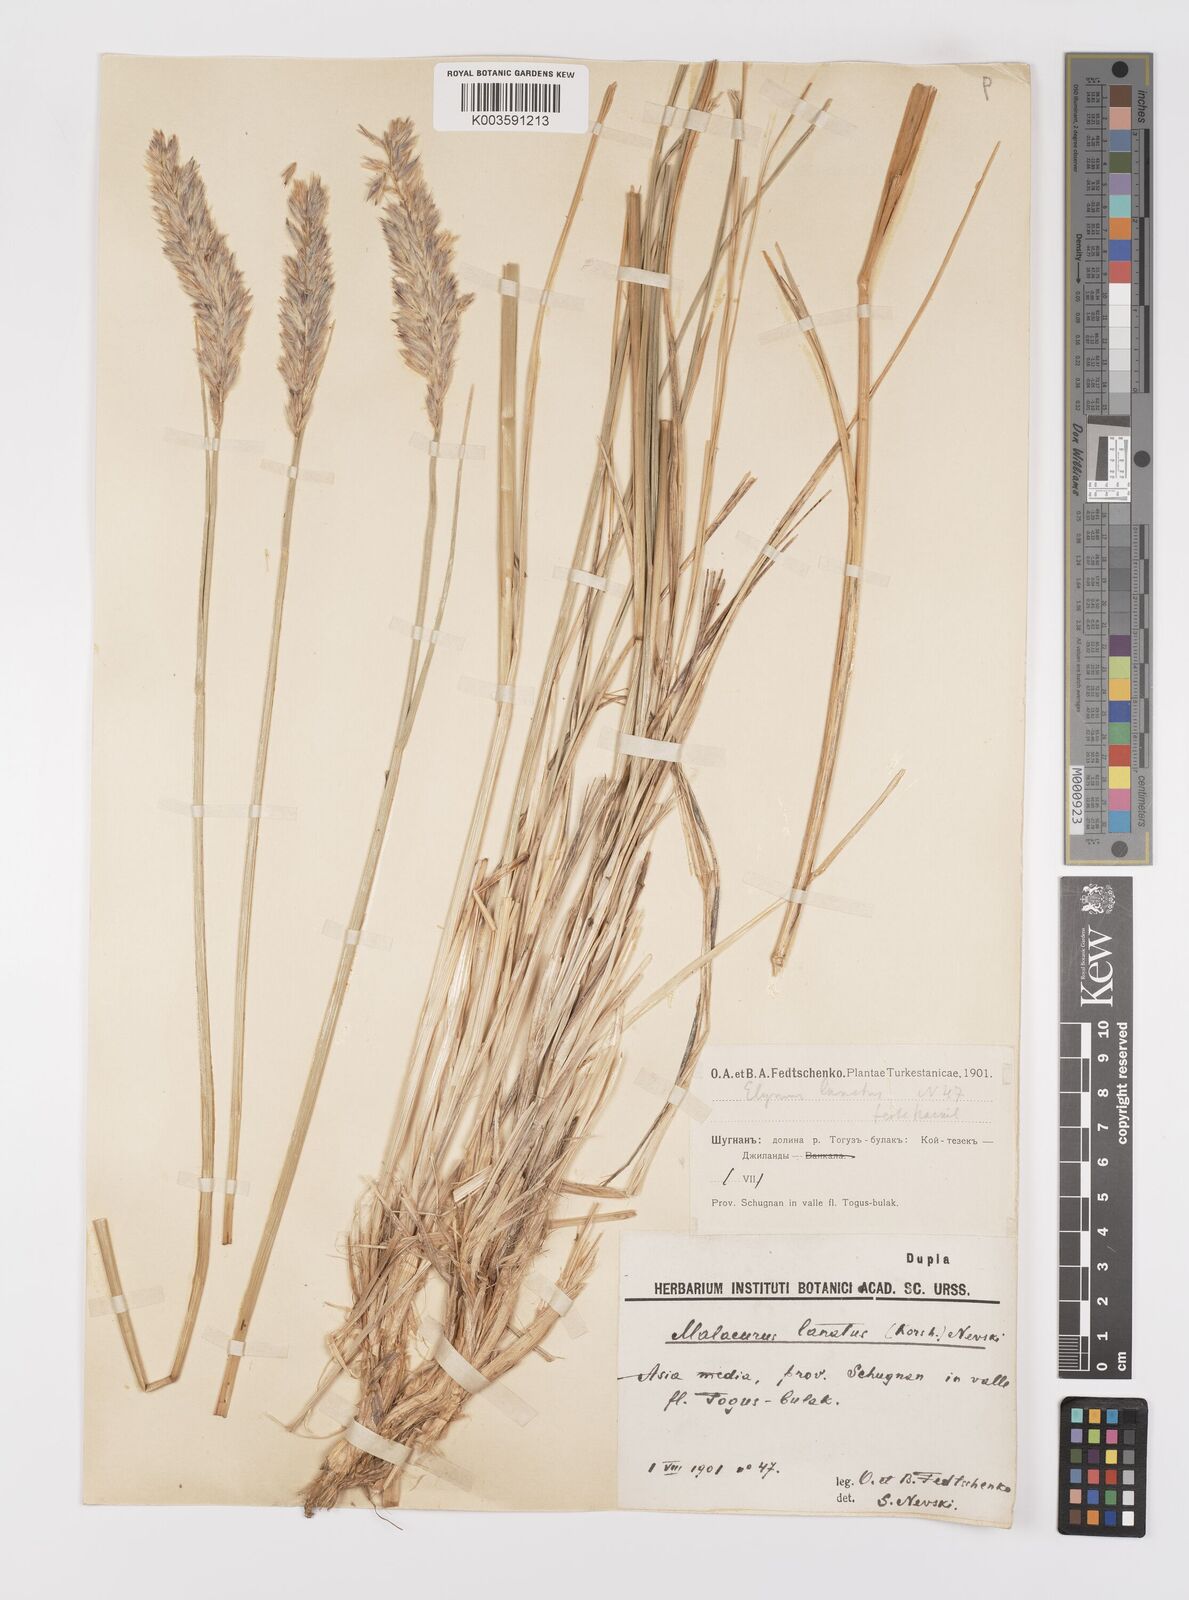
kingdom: Plantae
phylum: Tracheophyta
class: Liliopsida
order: Poales
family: Poaceae
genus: Leymus
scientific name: Leymus lanatus
